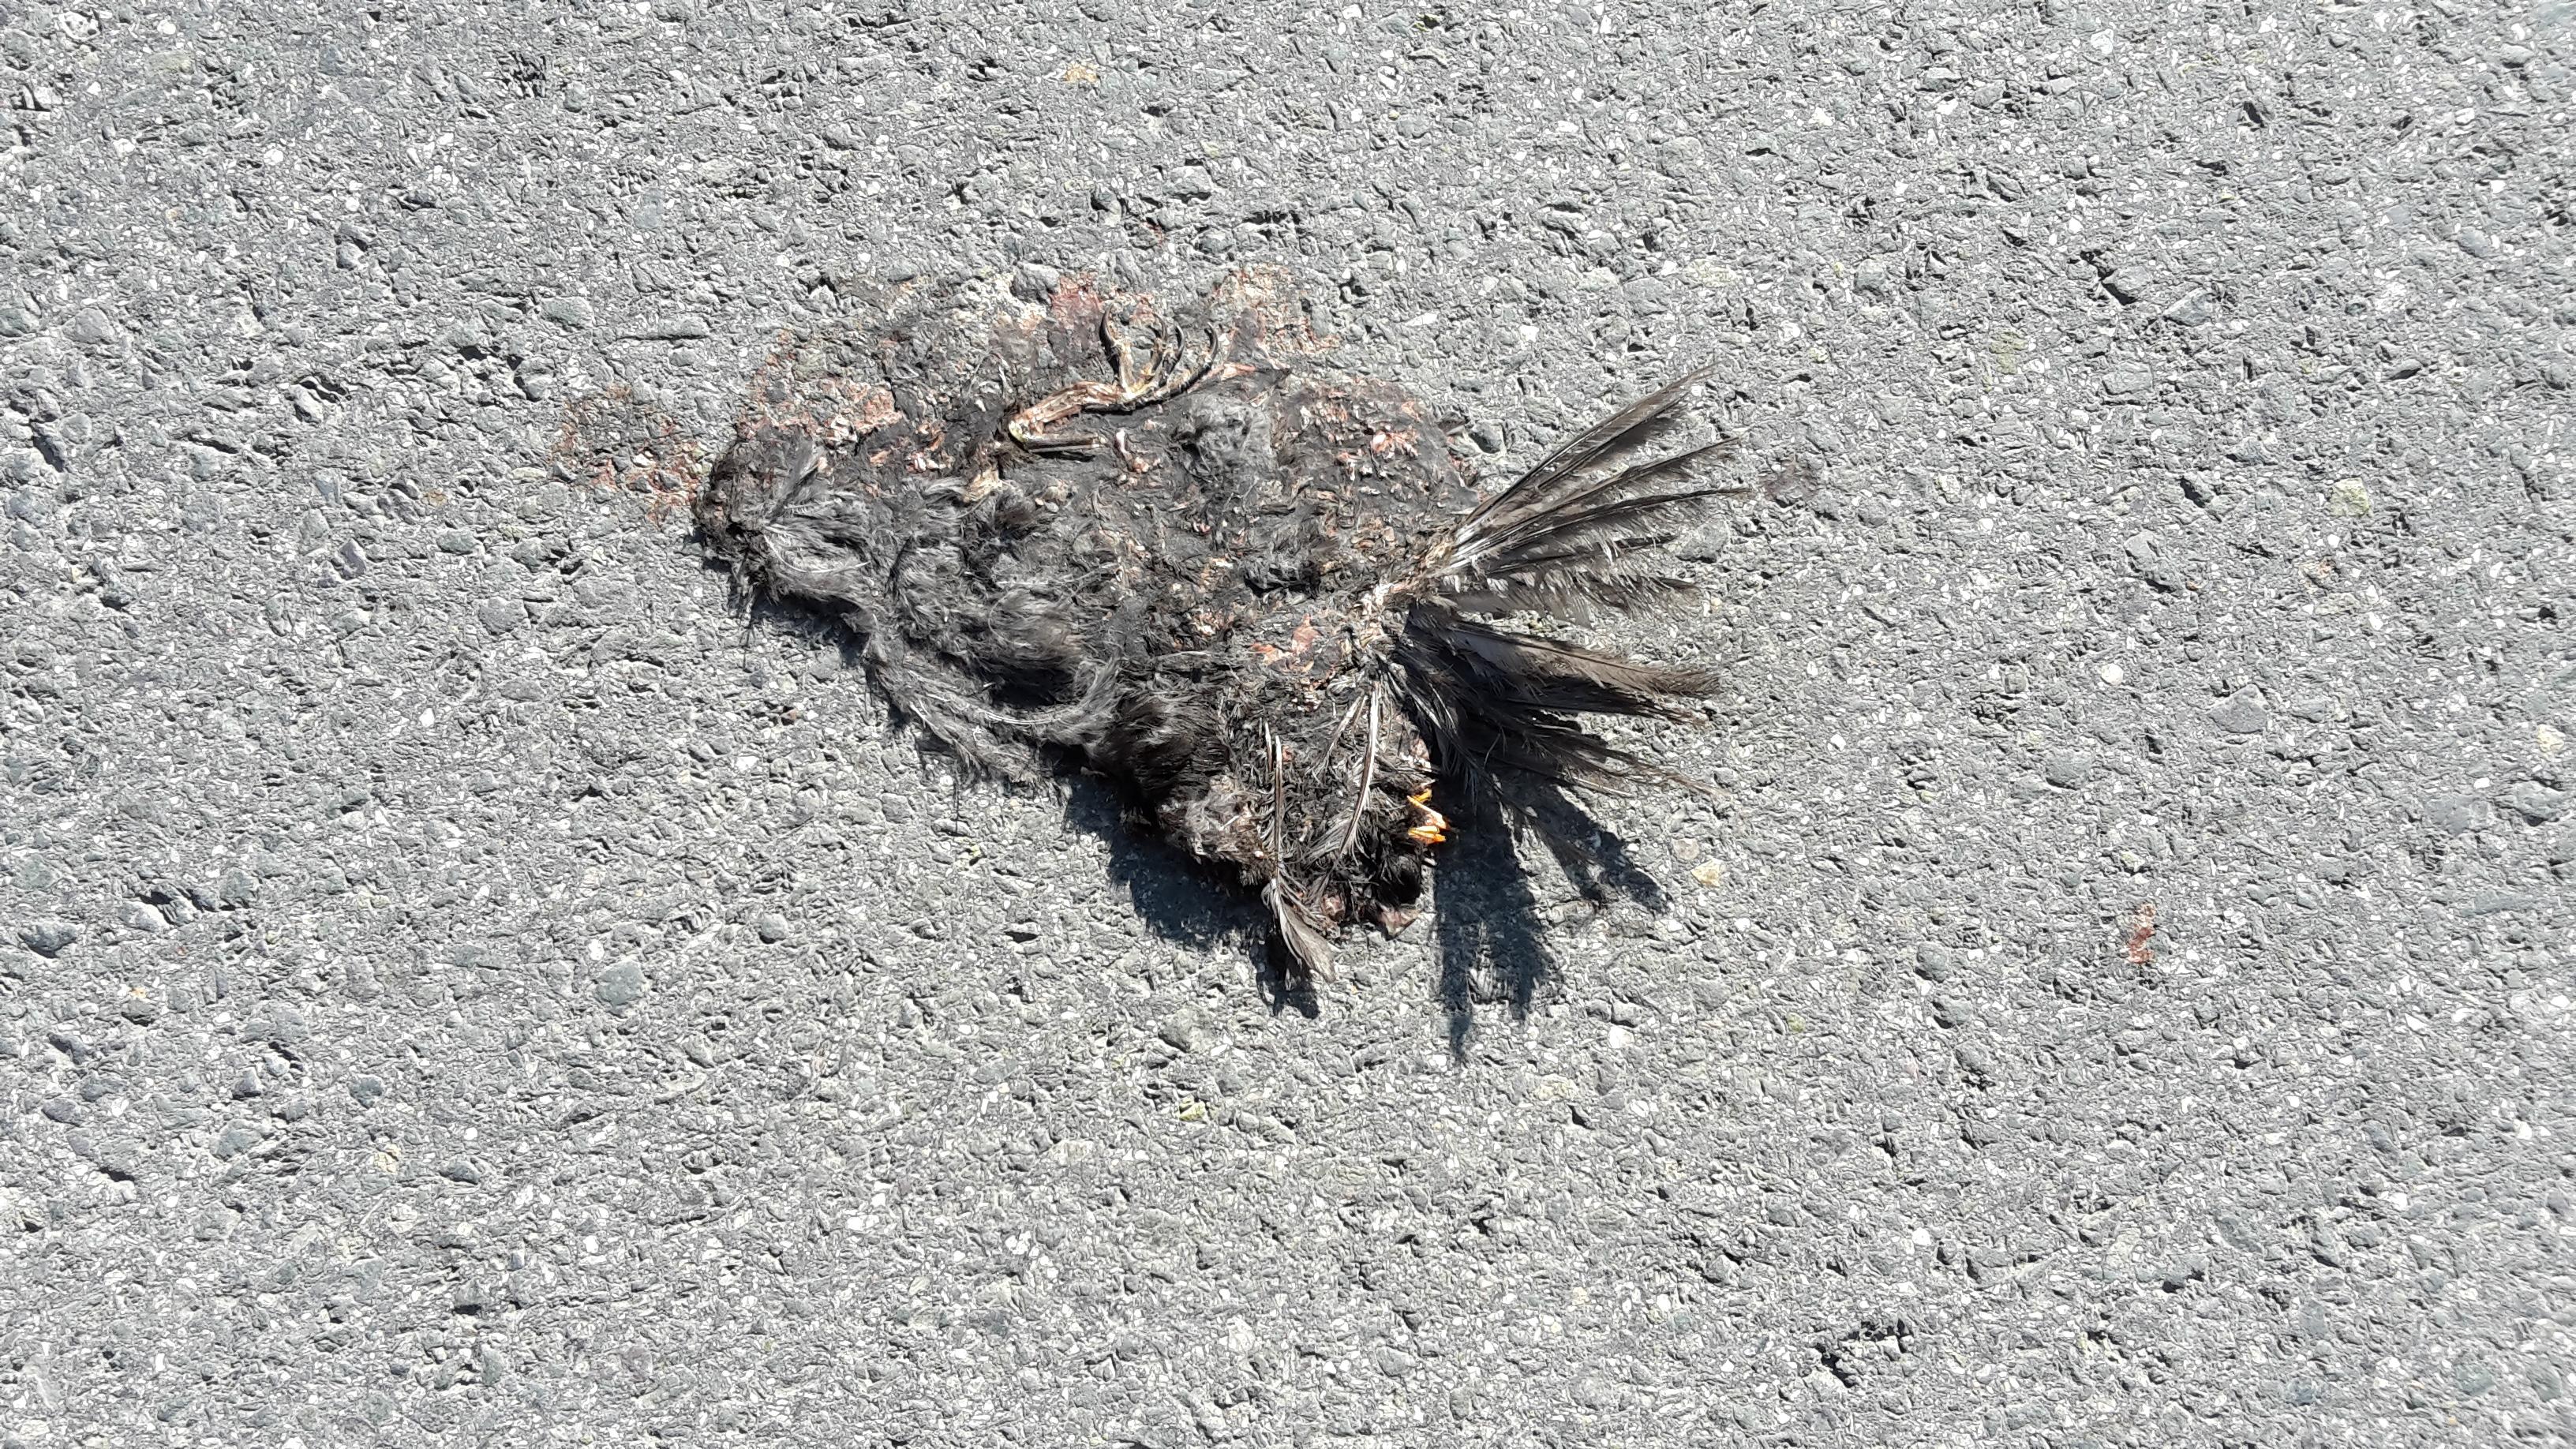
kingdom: Animalia
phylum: Chordata
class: Aves
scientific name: Aves
